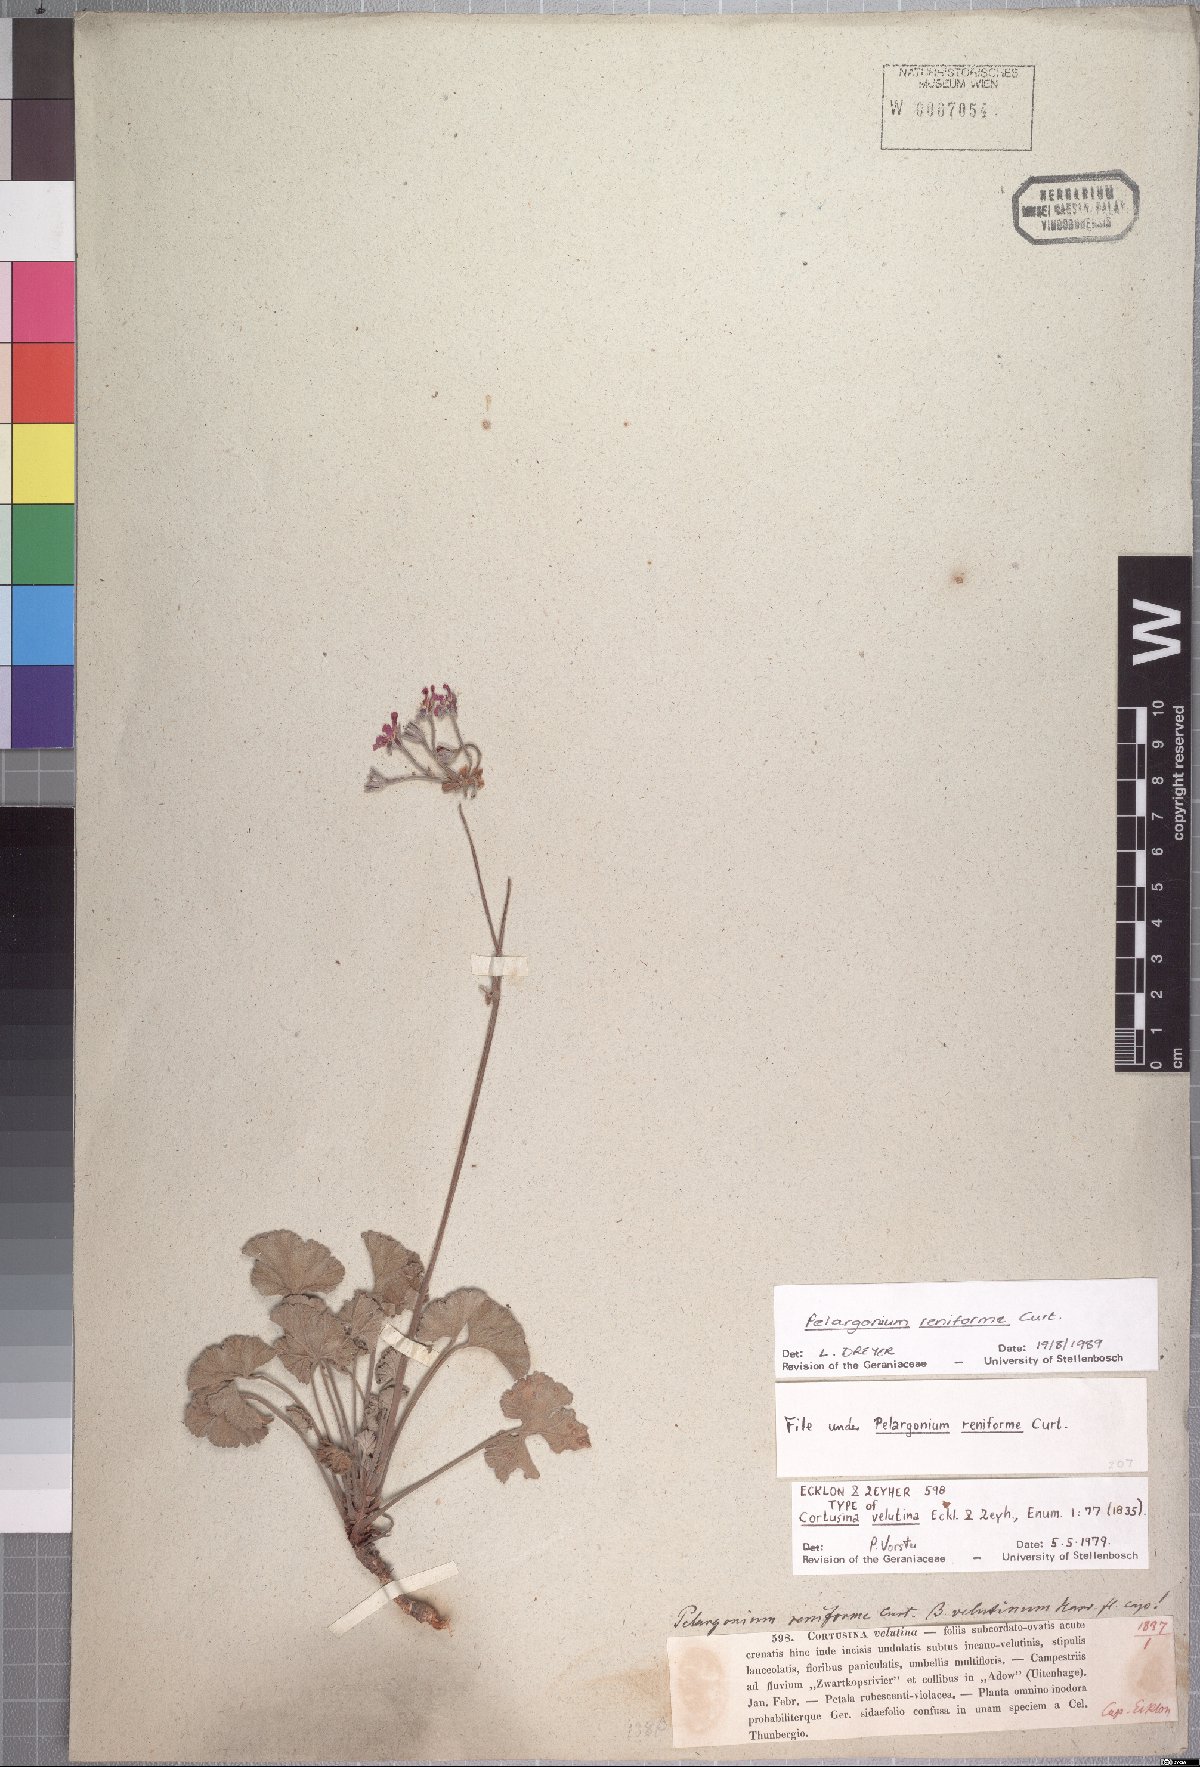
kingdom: Plantae
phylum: Tracheophyta
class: Magnoliopsida
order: Geraniales
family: Geraniaceae
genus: Pelargonium
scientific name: Pelargonium reniforme
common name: Kidney-leaf pelargonium
